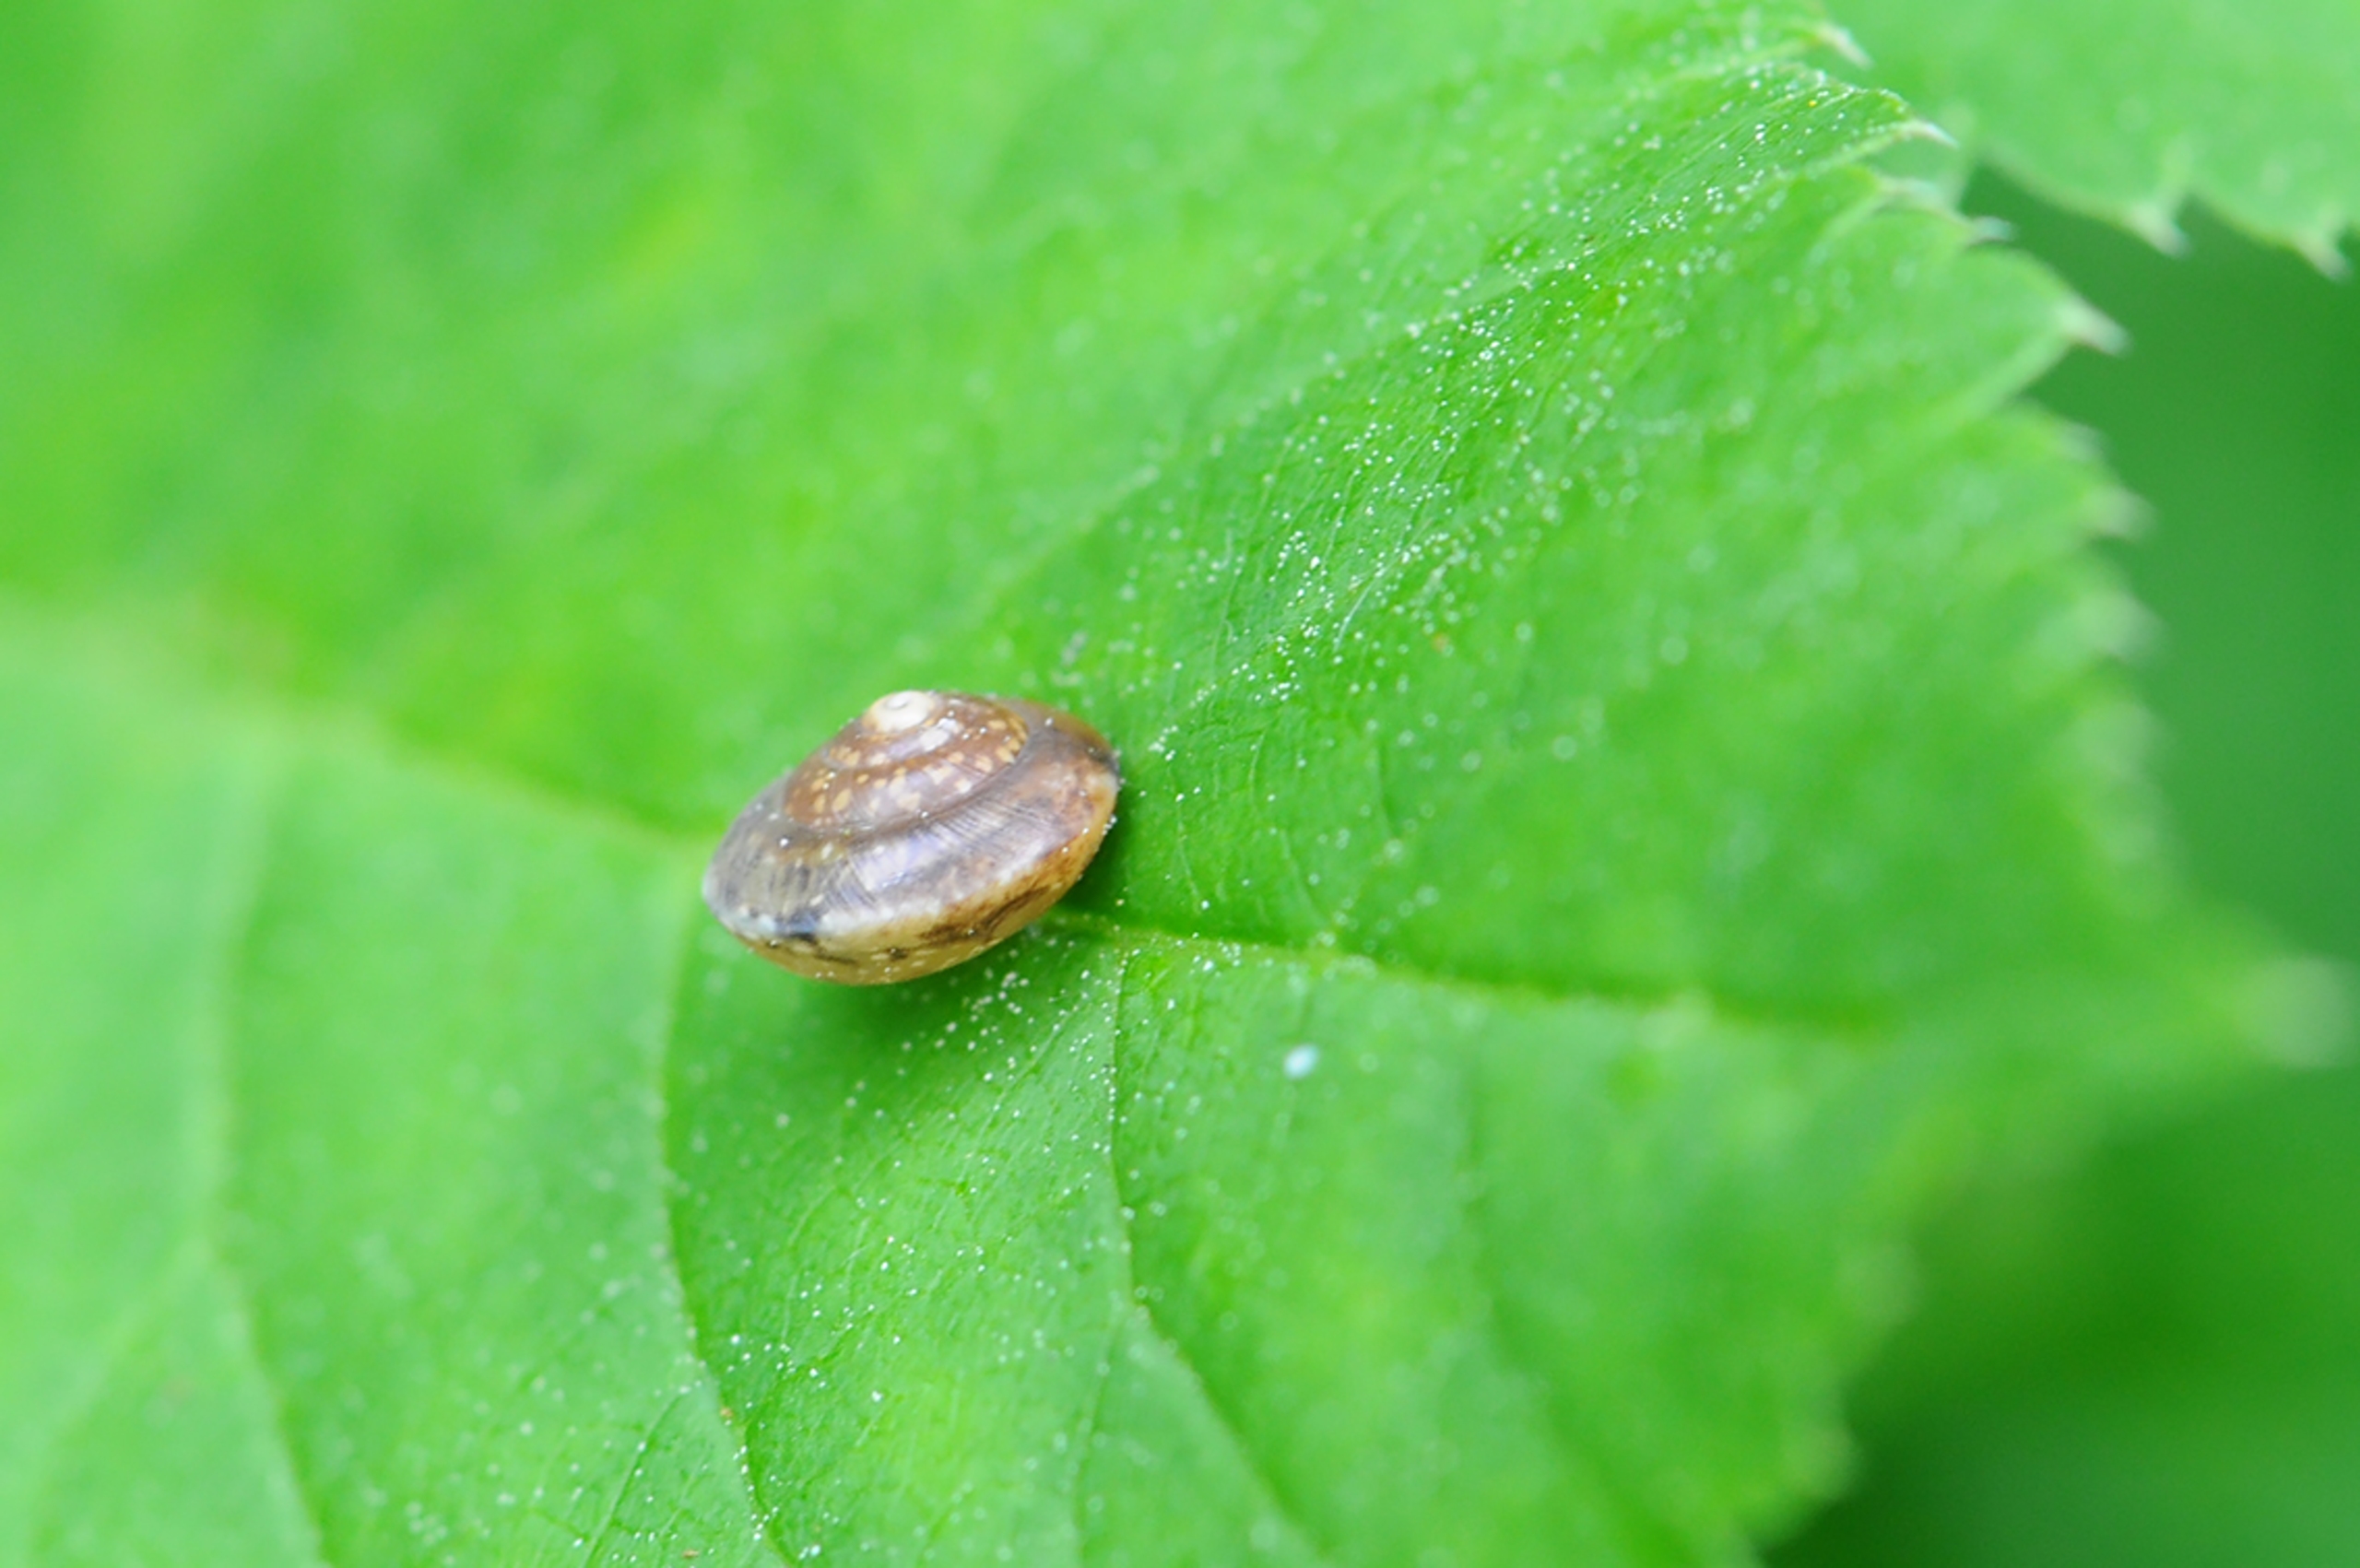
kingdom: Animalia
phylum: Mollusca
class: Gastropoda
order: Stylommatophora
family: Helicidae
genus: Helicigona
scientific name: Helicigona lapicida
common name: Lampesnegl
